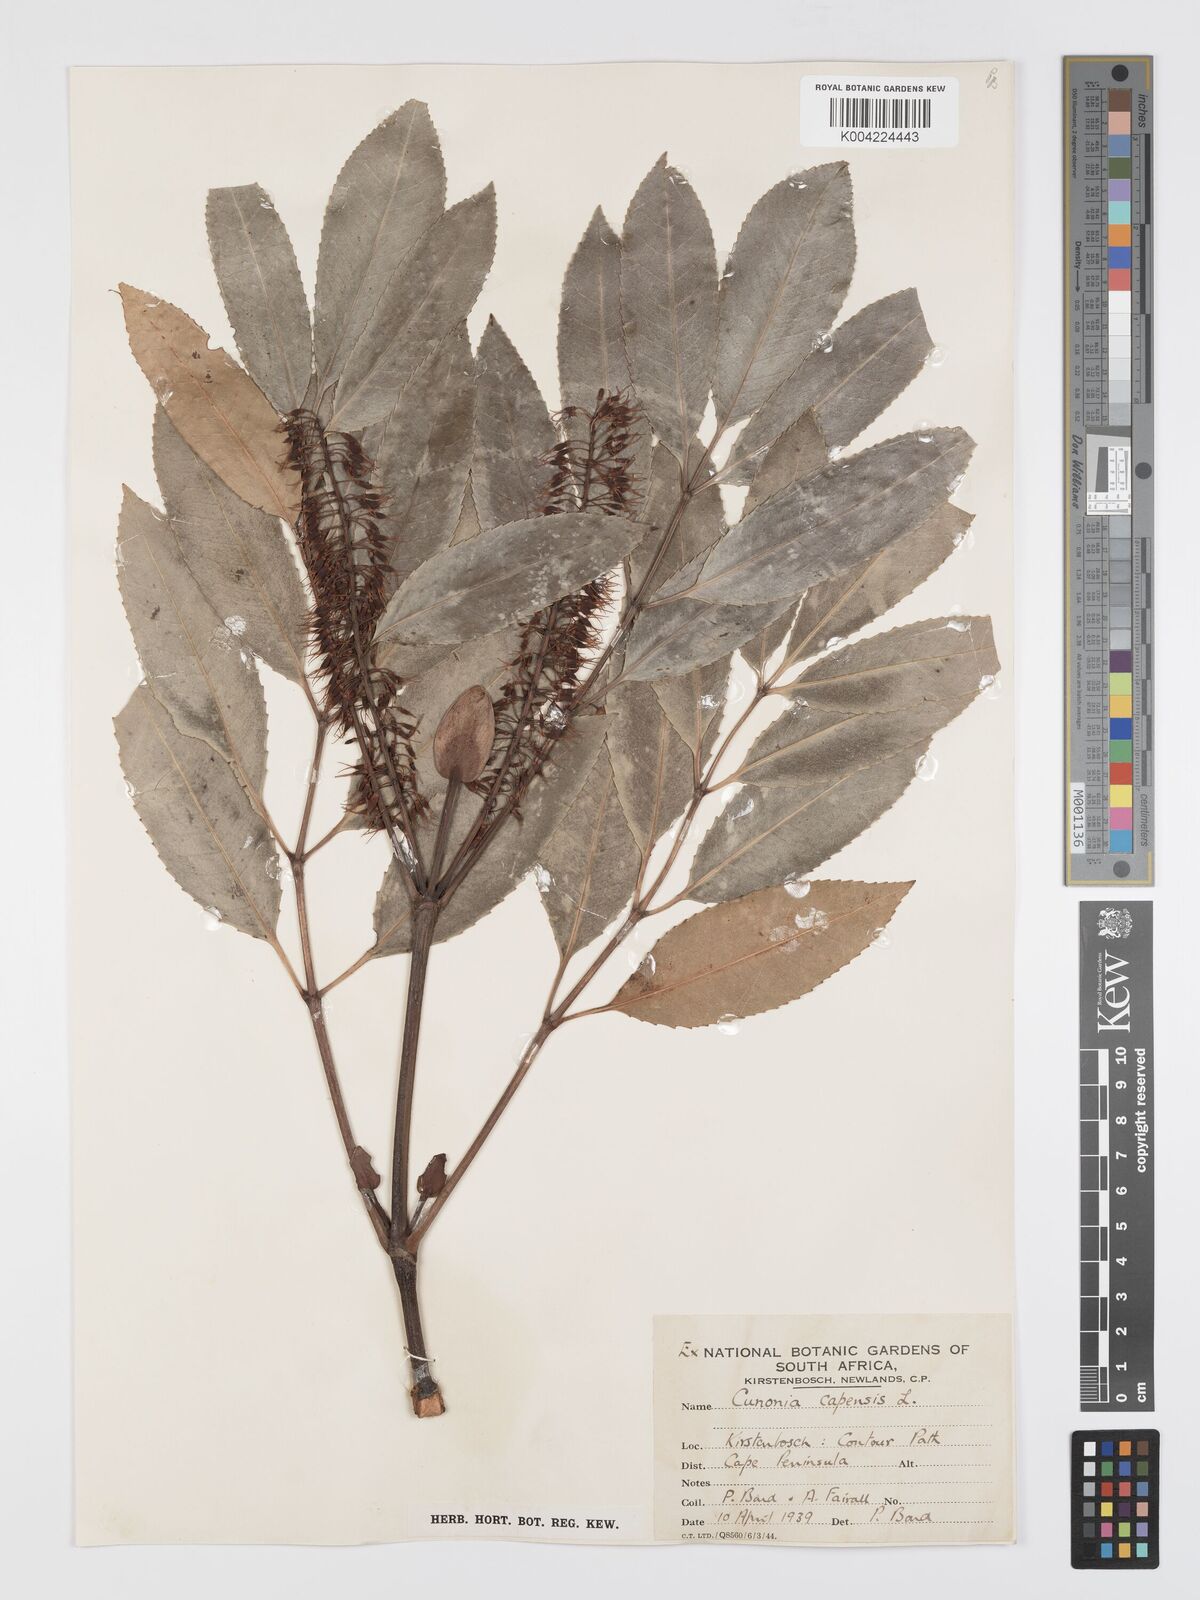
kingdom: Plantae
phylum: Tracheophyta
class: Magnoliopsida
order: Oxalidales
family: Cunoniaceae
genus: Cunonia
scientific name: Cunonia capensis
